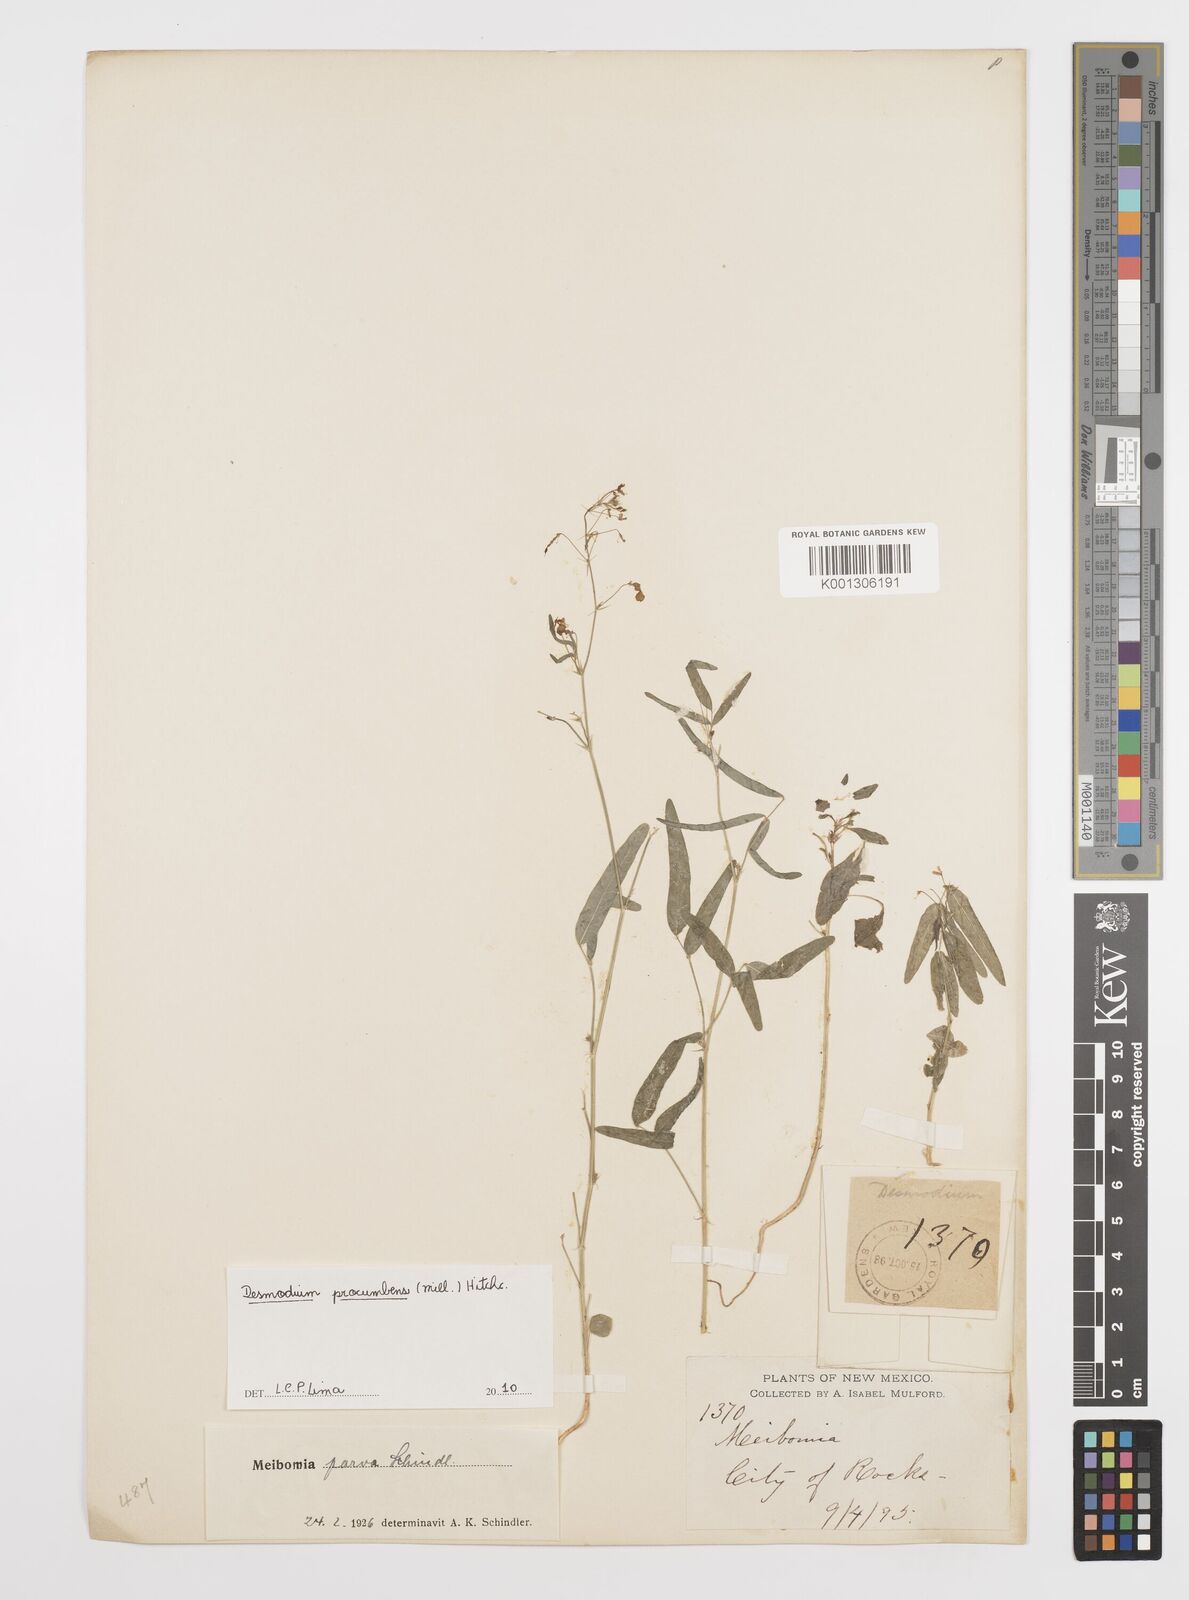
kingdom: Plantae
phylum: Tracheophyta
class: Magnoliopsida
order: Fabales
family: Fabaceae
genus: Desmodium
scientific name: Desmodium procumbens
